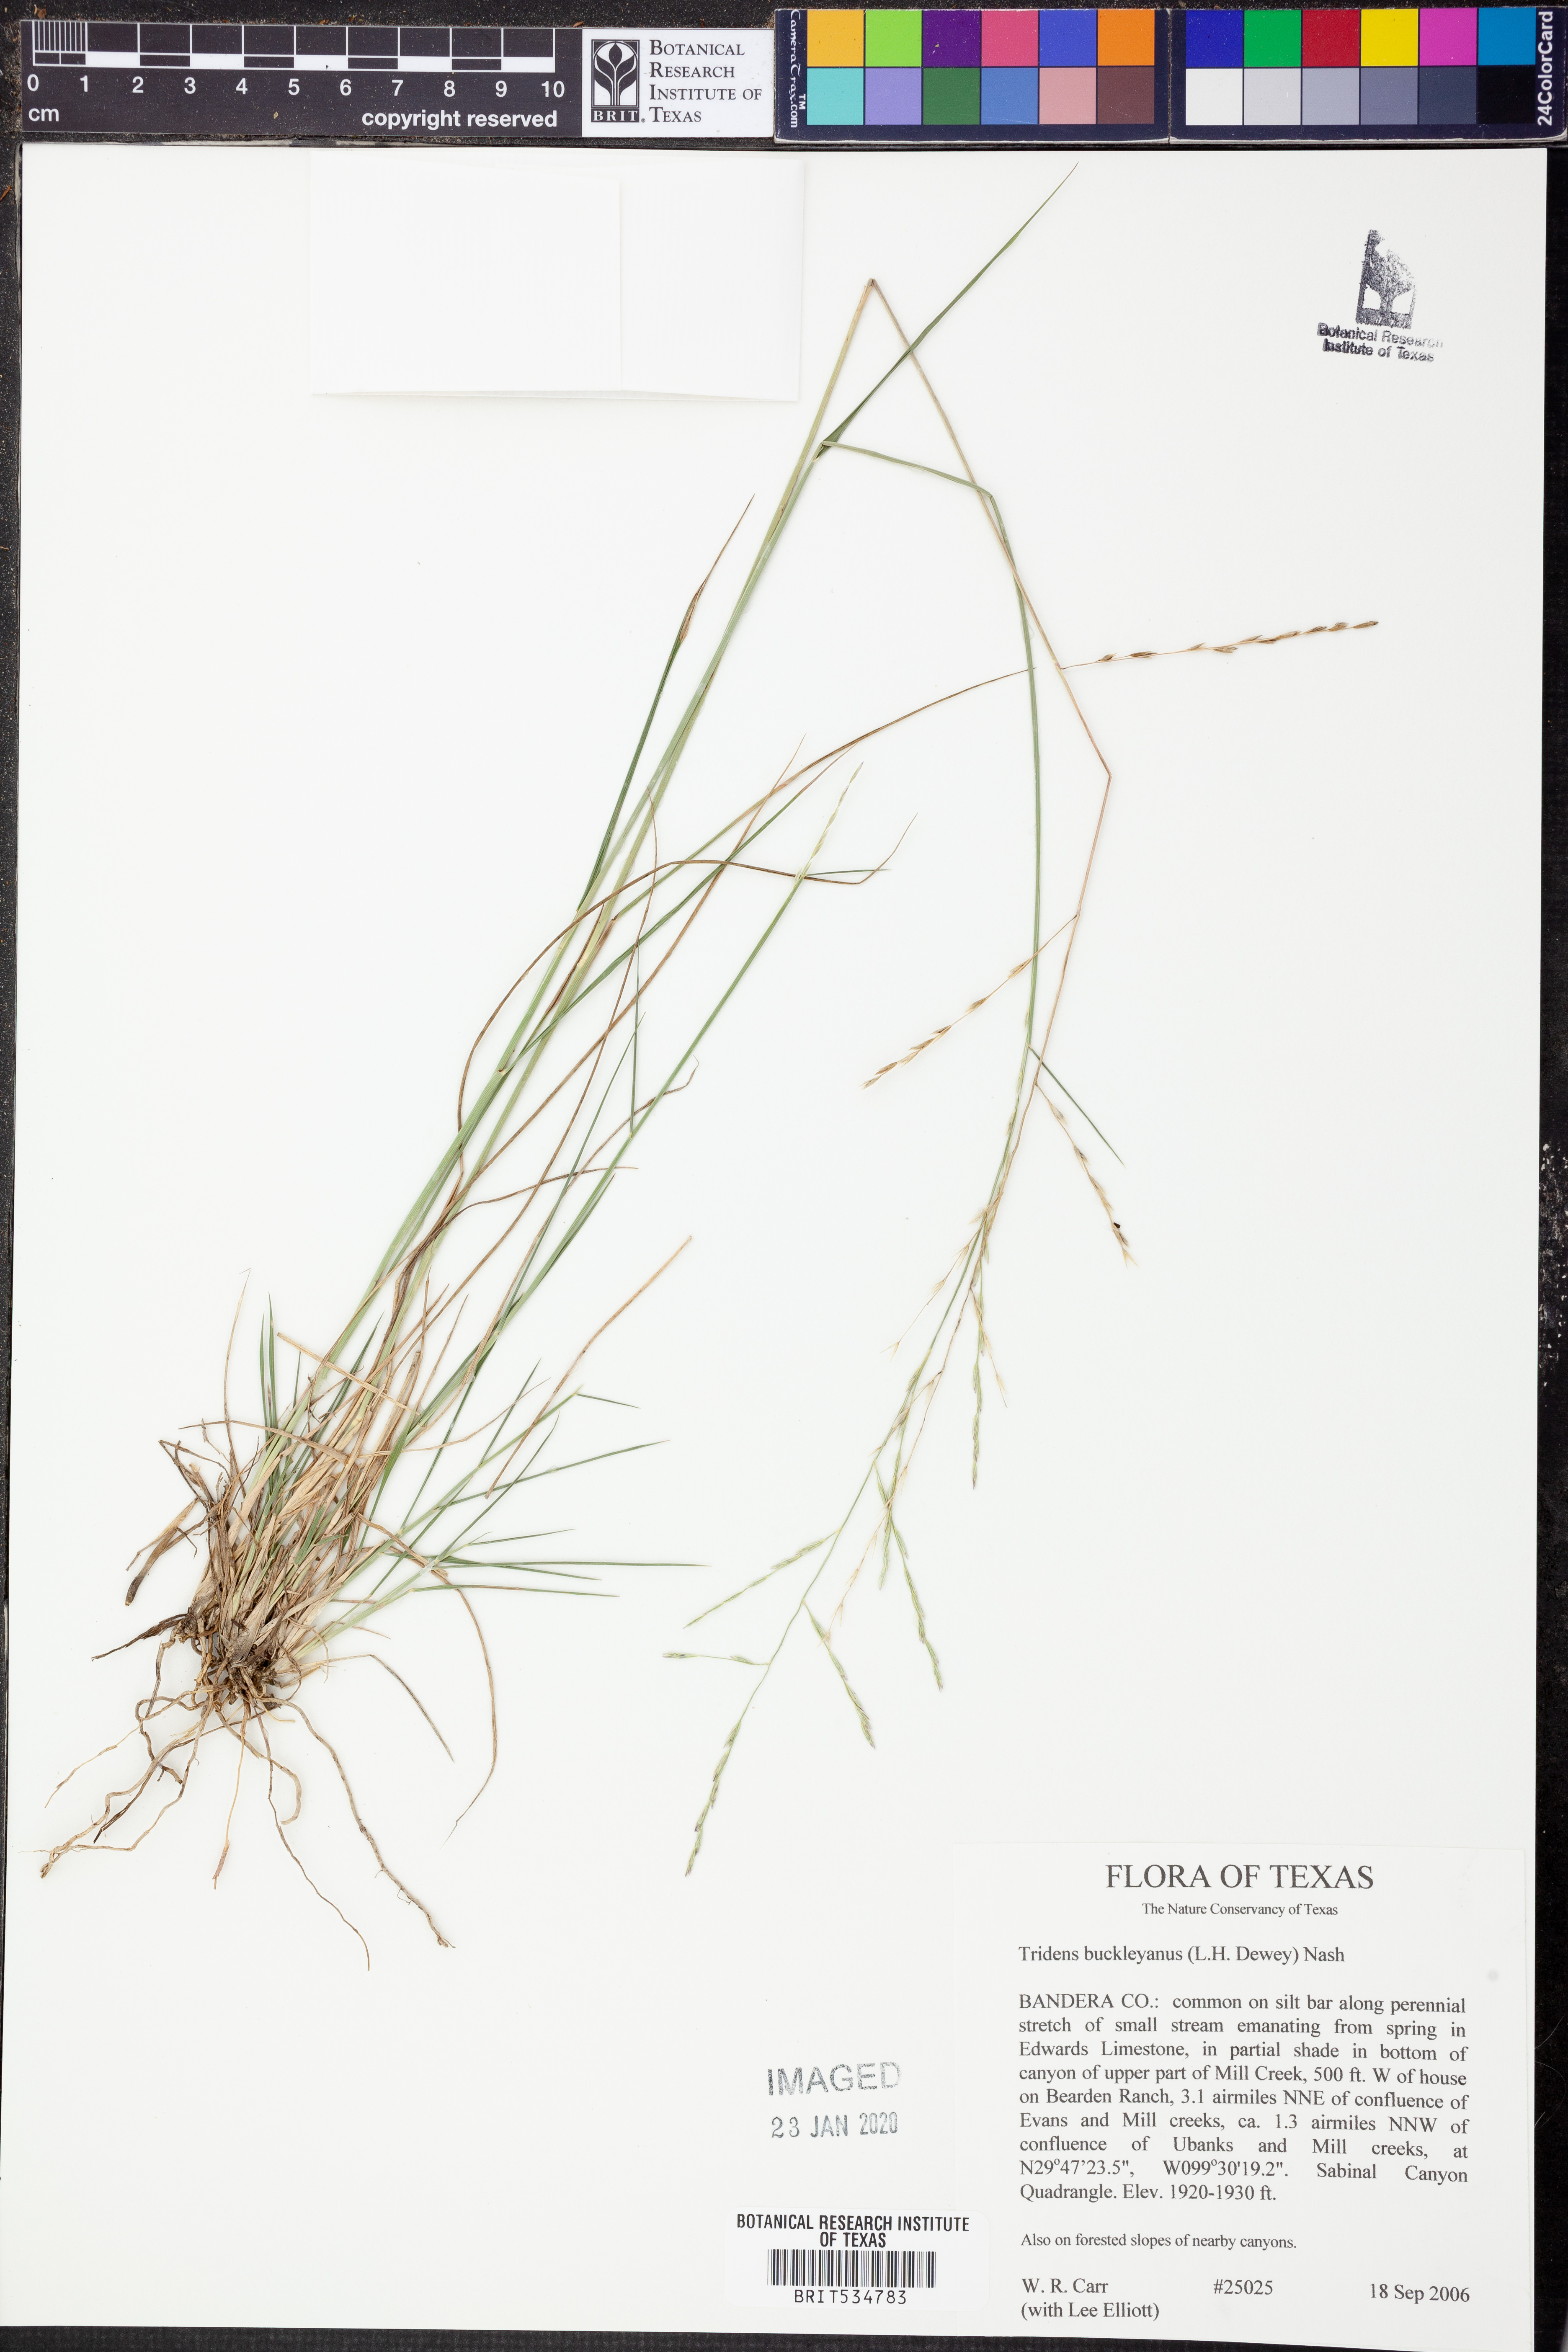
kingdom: Plantae
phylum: Tracheophyta
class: Liliopsida
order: Poales
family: Poaceae
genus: Tridentopsis
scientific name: Tridentopsis buckleyana
